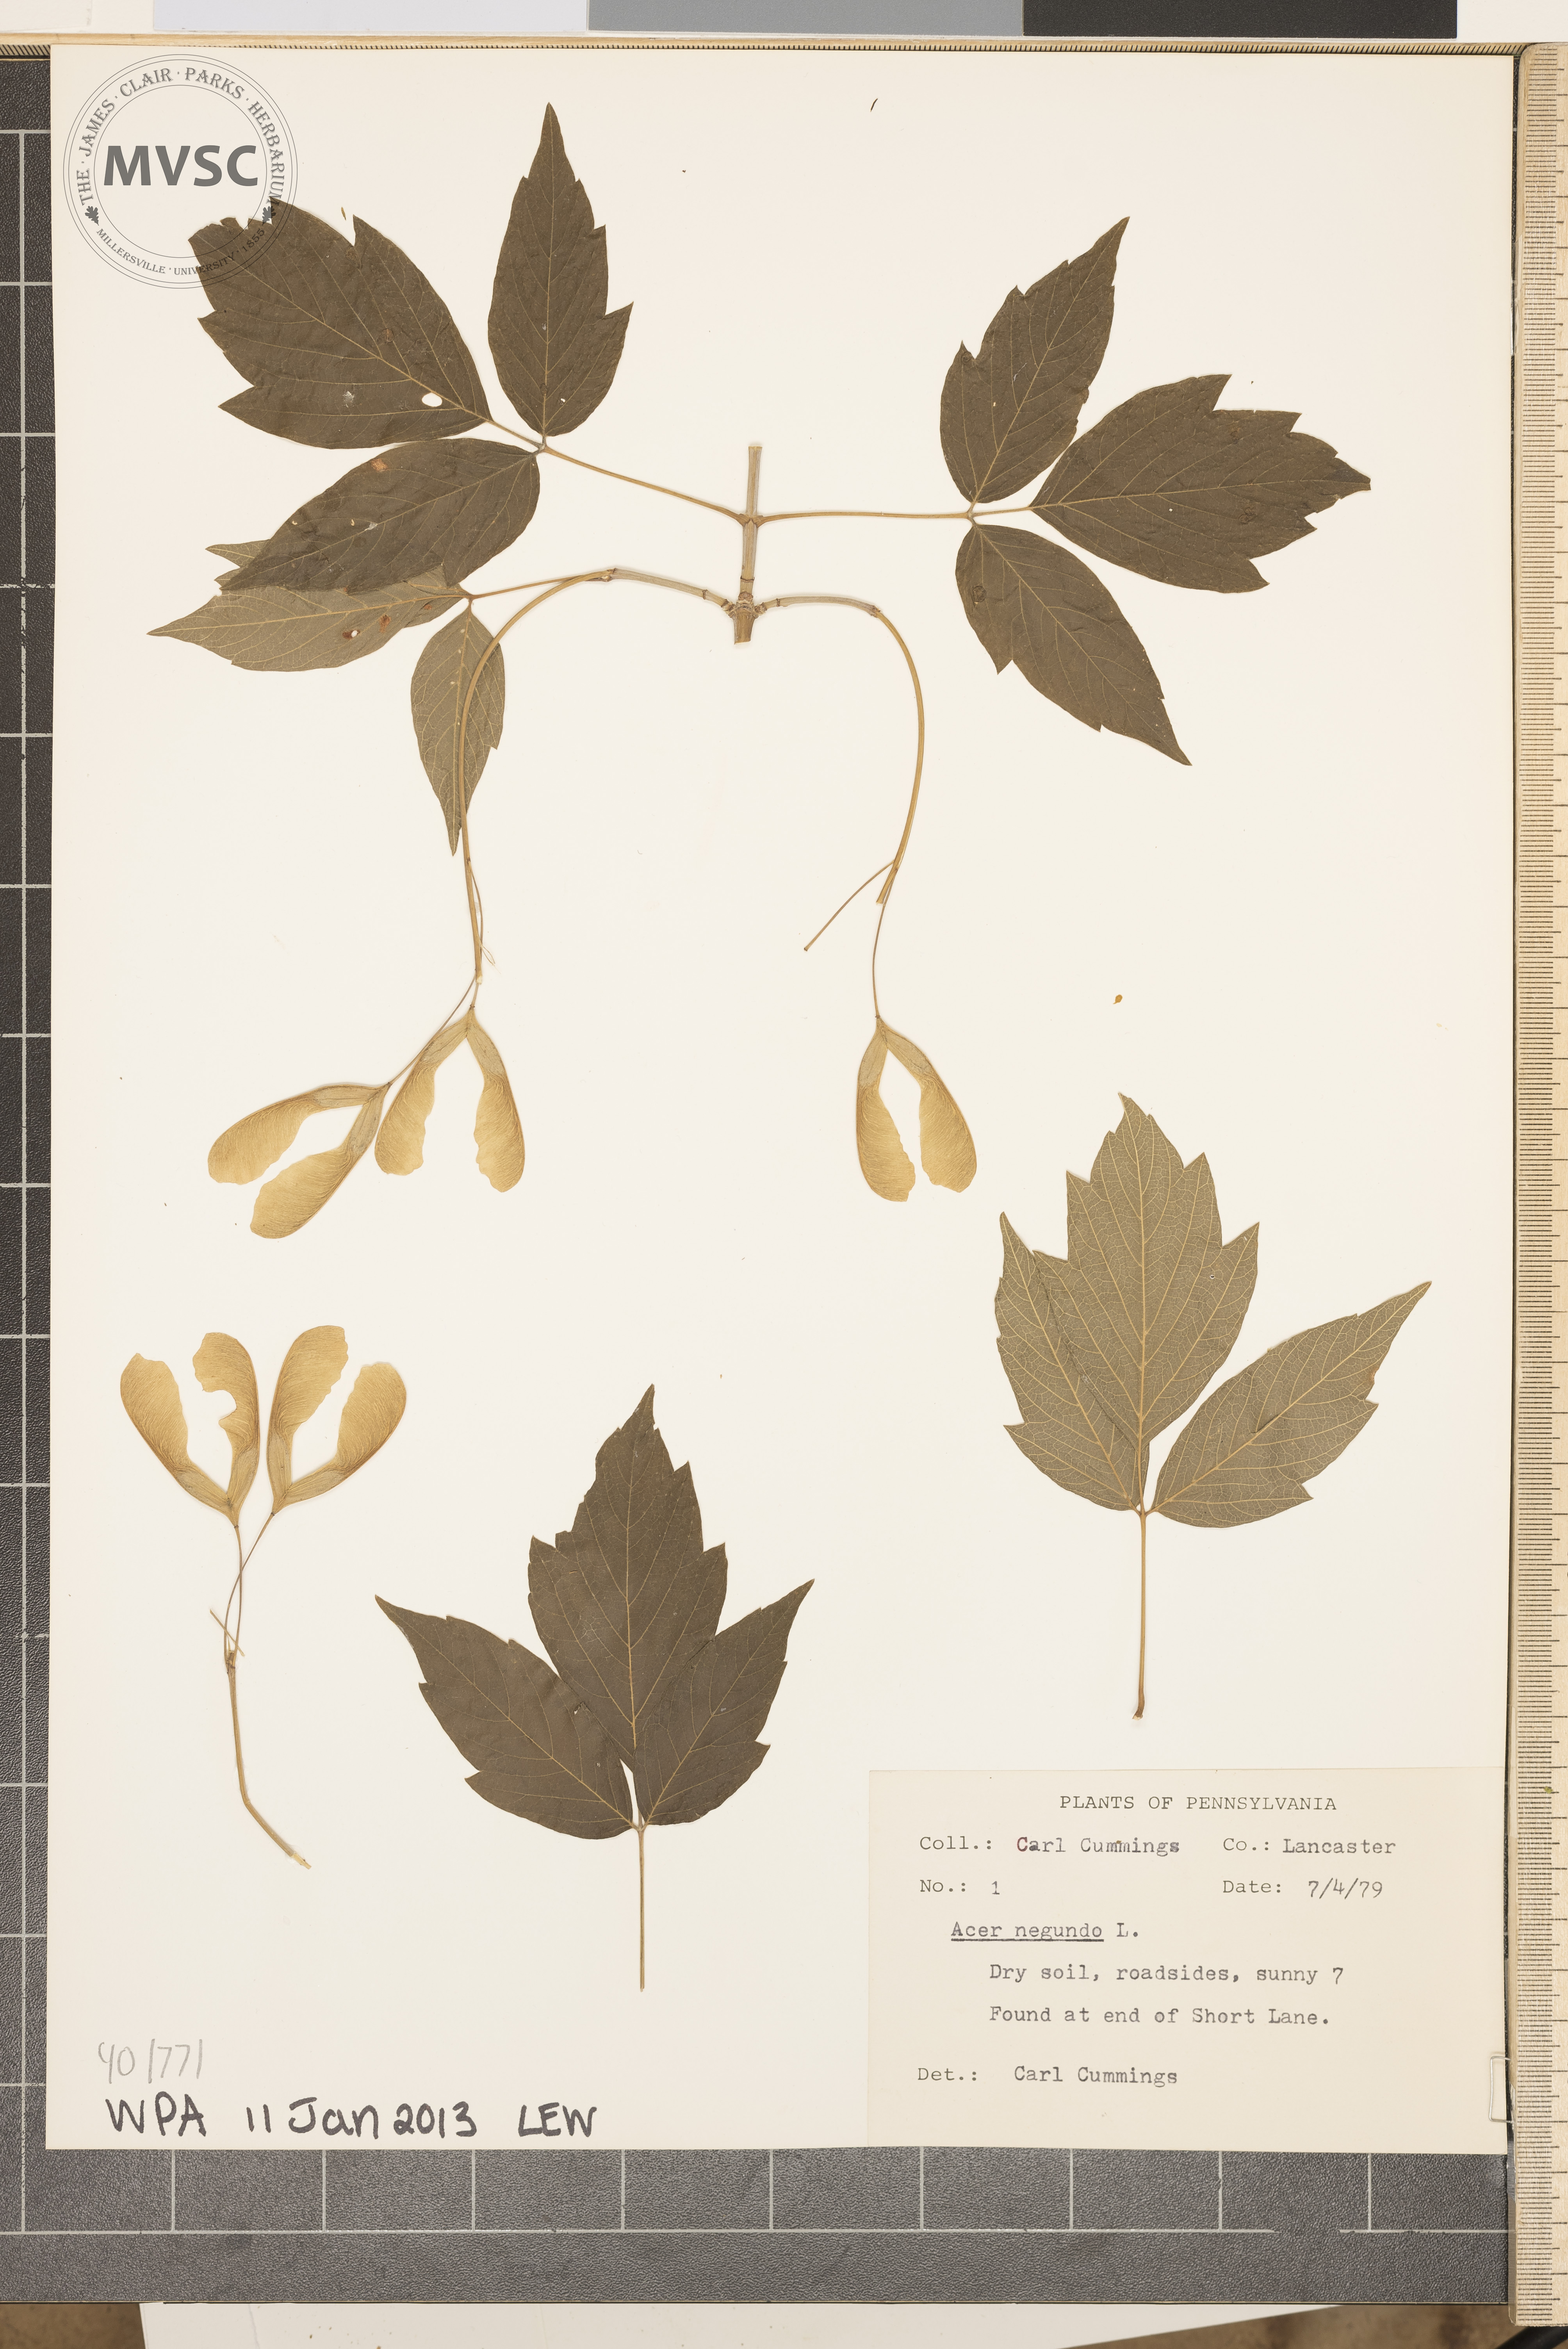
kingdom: Plantae
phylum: Tracheophyta
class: Magnoliopsida
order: Sapindales
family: Sapindaceae
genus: Acer
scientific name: Acer negundo
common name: Box-elder
